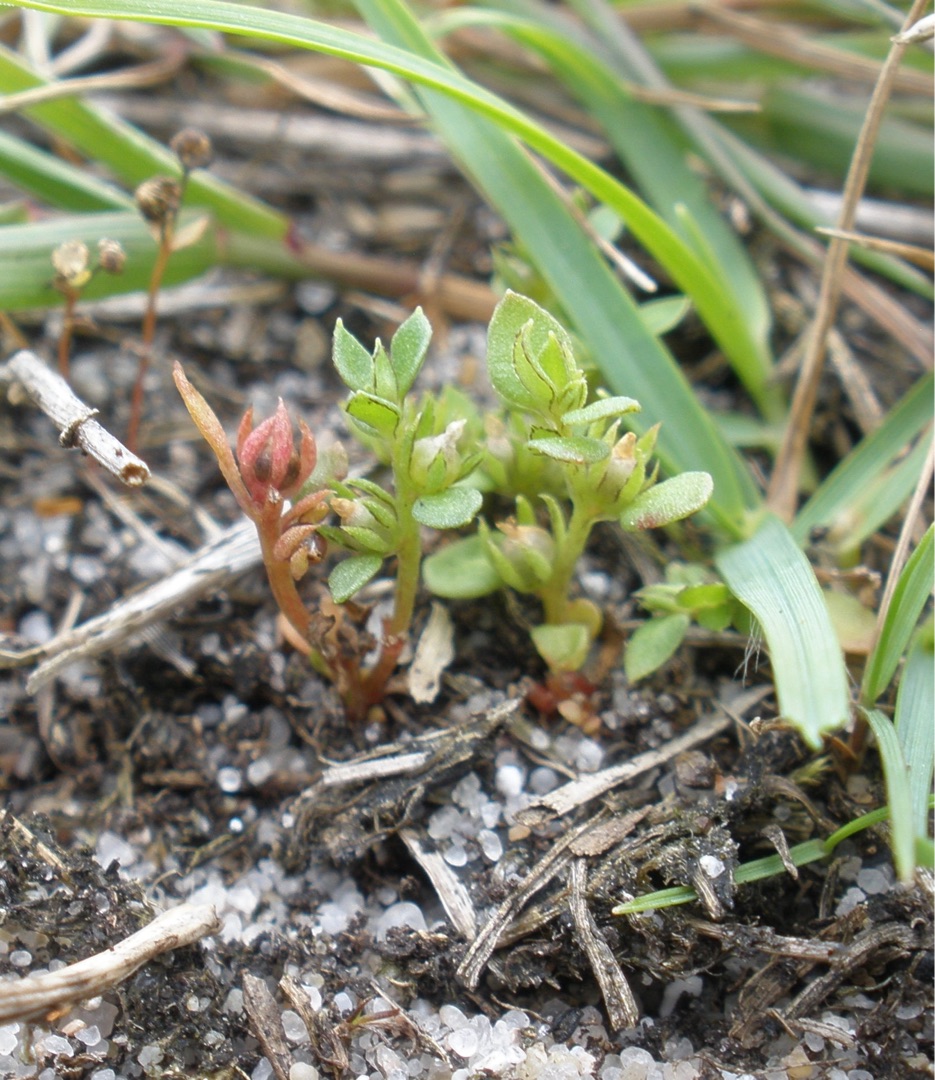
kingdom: Plantae
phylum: Tracheophyta
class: Magnoliopsida
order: Ericales
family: Primulaceae
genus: Lysimachia
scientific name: Lysimachia minima
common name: Knudearve
